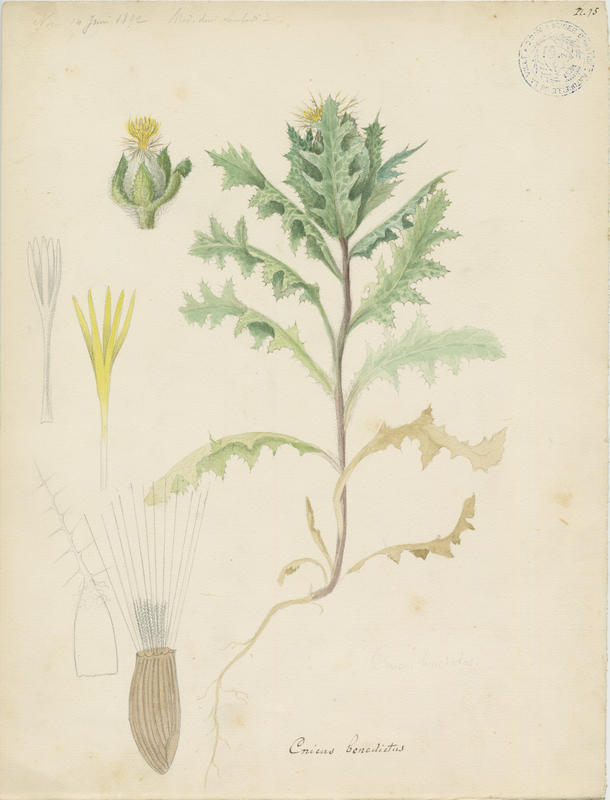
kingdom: Plantae
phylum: Tracheophyta
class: Magnoliopsida
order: Asterales
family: Asteraceae
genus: Centaurea
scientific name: Centaurea benedicta
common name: Blessed thistle
